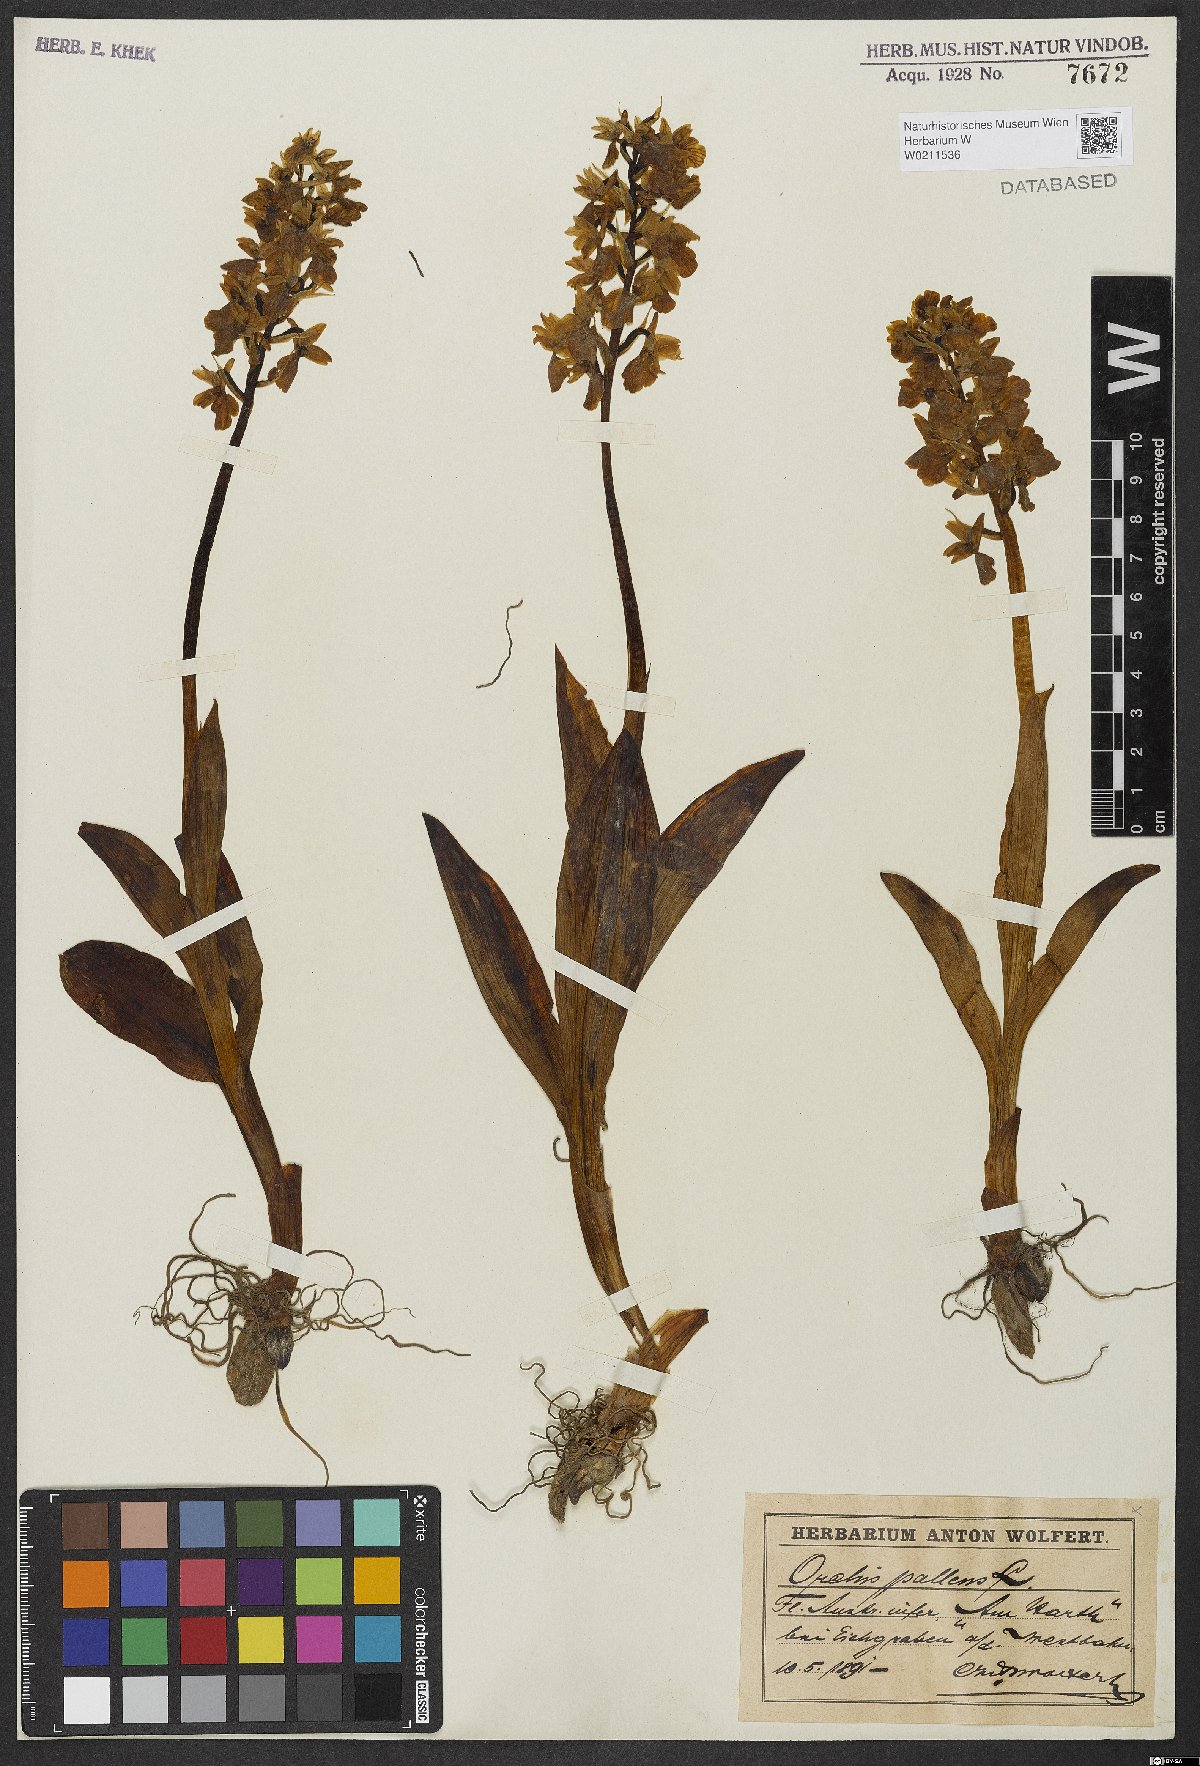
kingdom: Plantae
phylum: Tracheophyta
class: Liliopsida
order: Asparagales
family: Orchidaceae
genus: Orchis
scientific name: Orchis pallens
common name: Pale-flowered orchid
